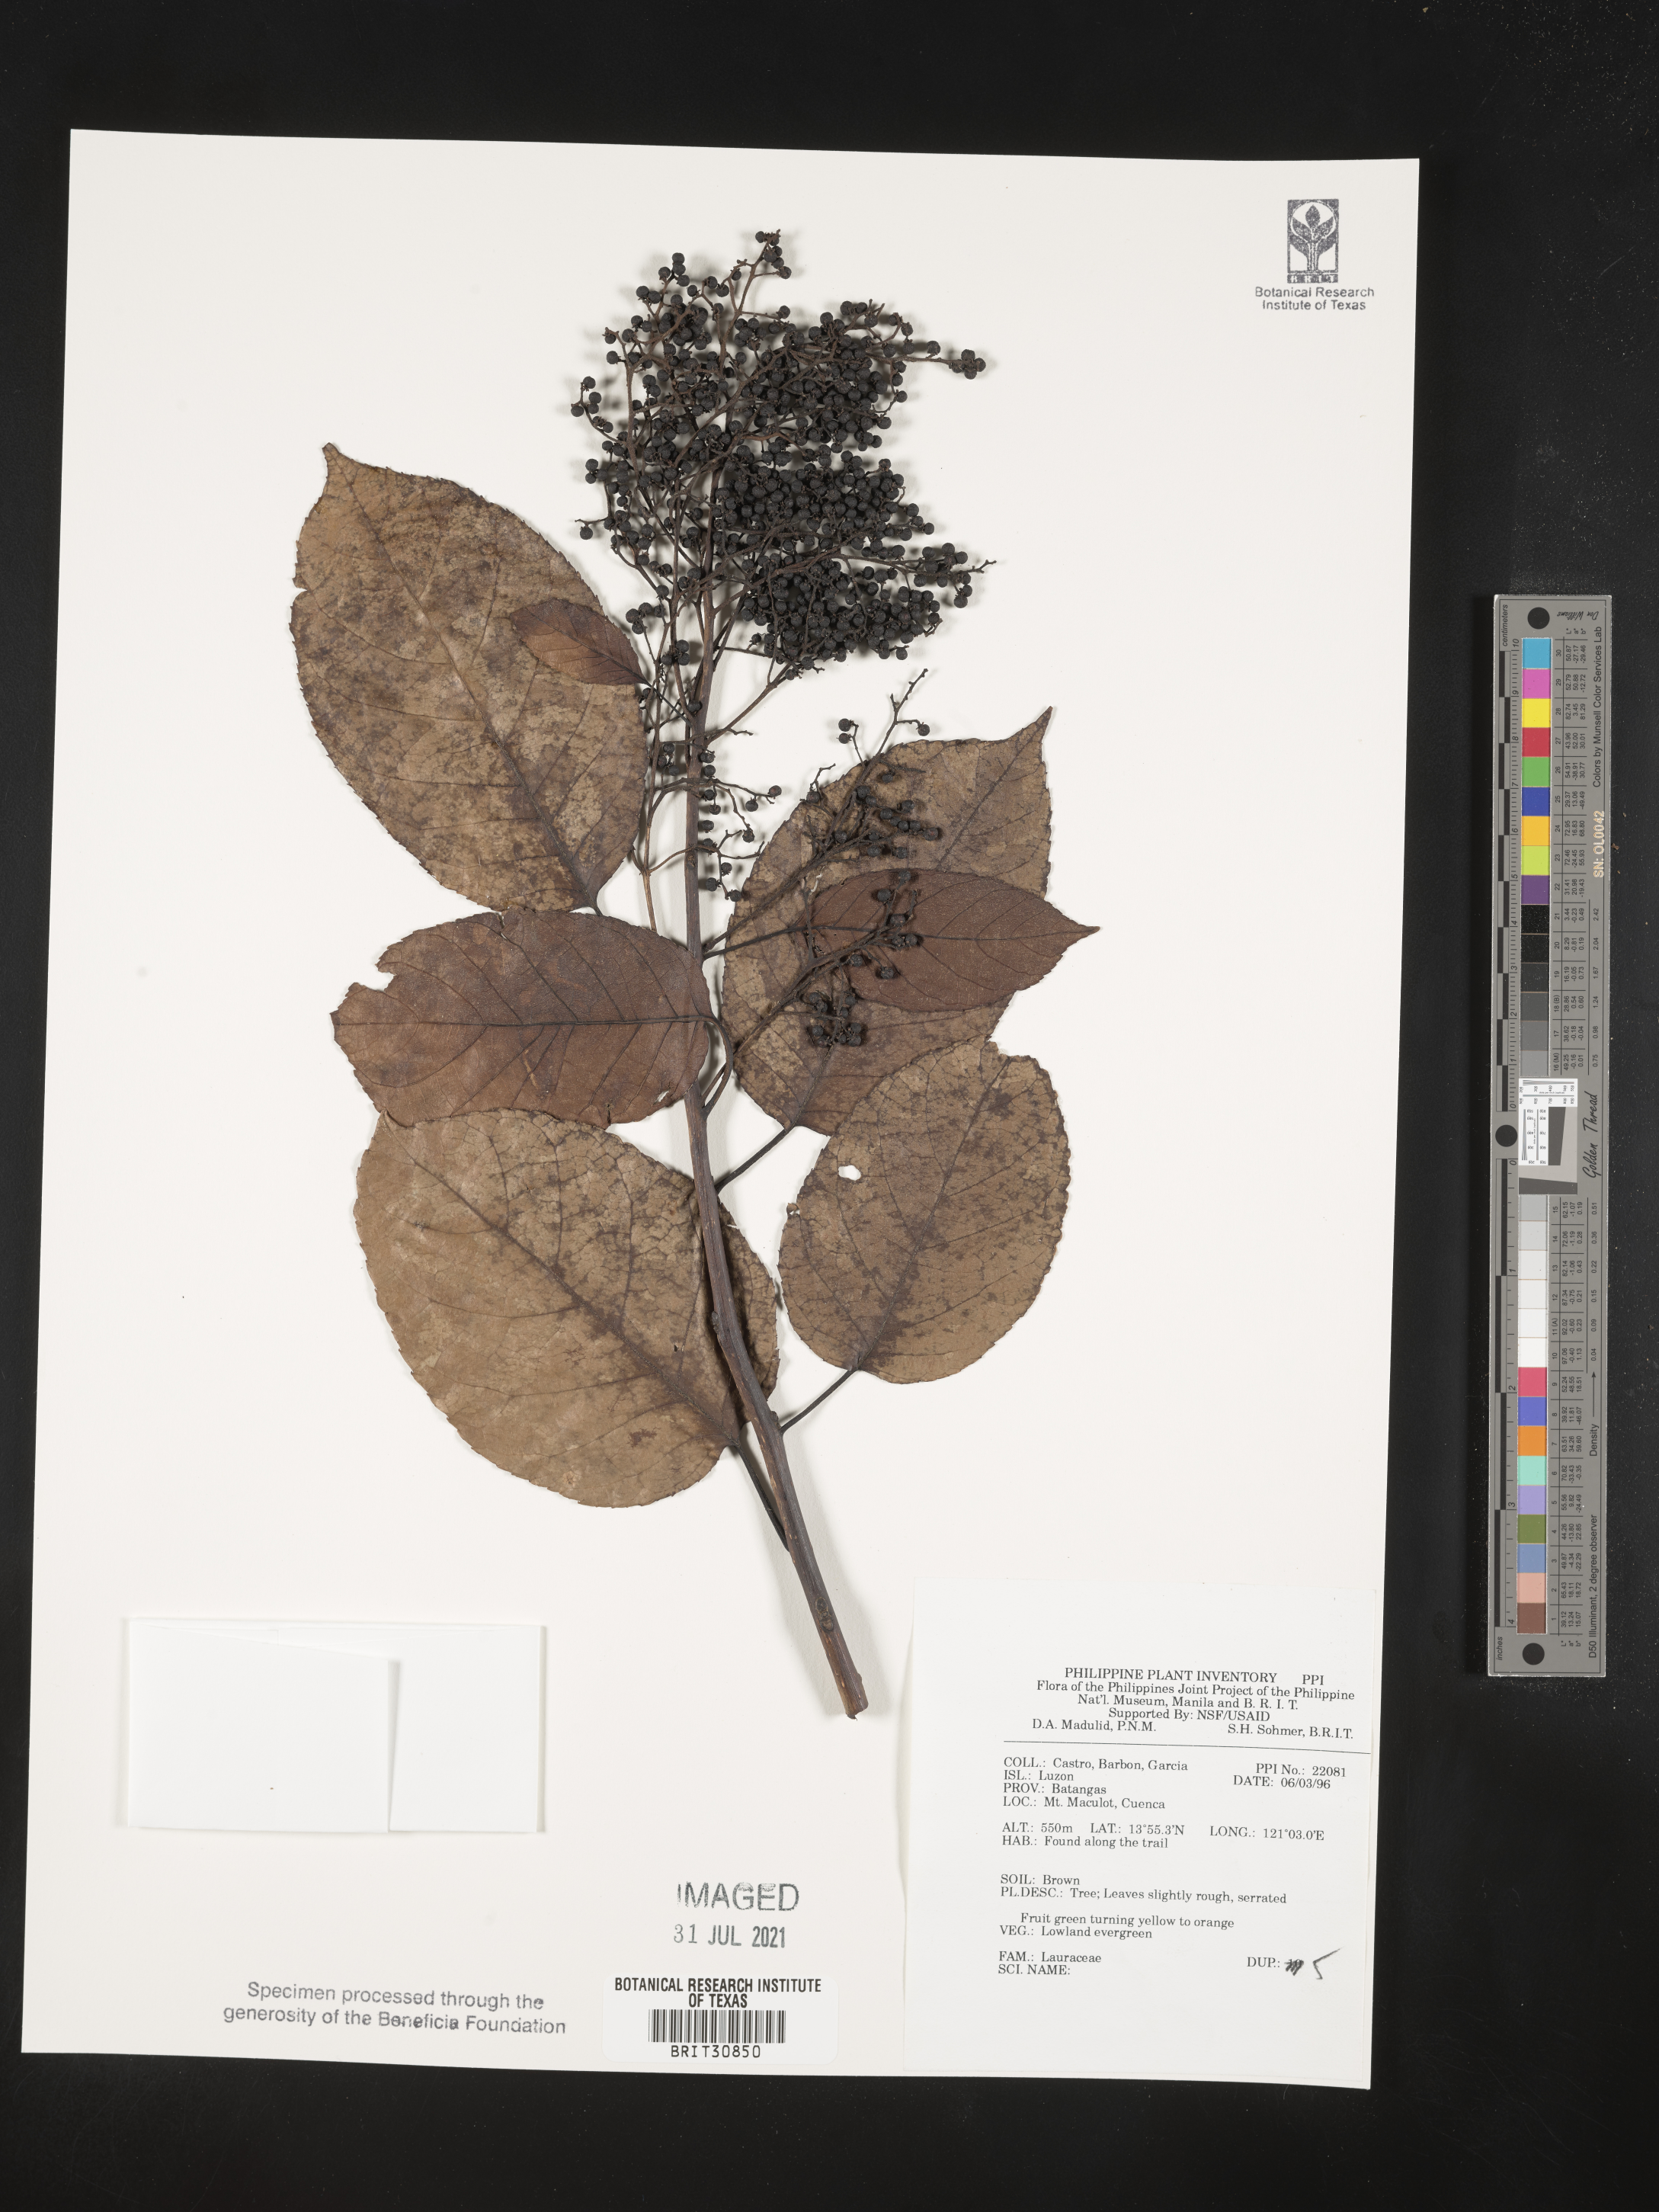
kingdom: Plantae
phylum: Tracheophyta
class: Magnoliopsida
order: Laurales
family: Lauraceae
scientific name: Lauraceae
